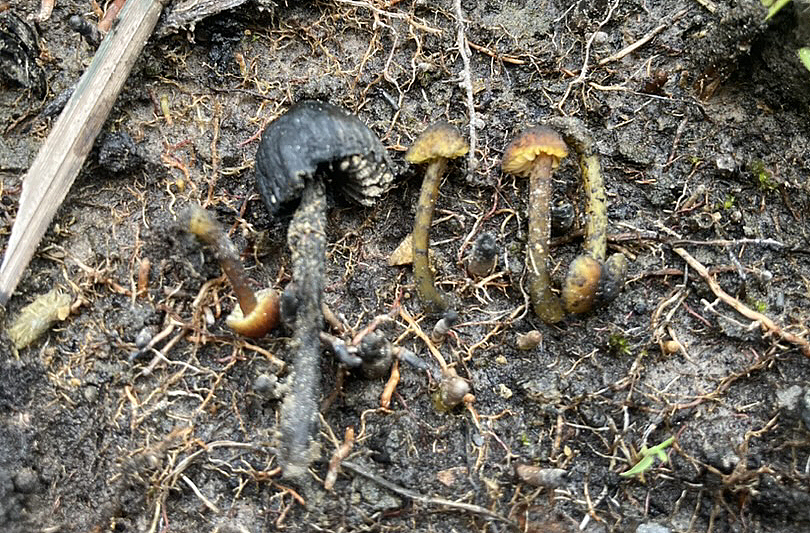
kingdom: Fungi
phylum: Basidiomycota
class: Agaricomycetes
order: Agaricales
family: Hygrophoraceae
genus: Hygrocybe
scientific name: Hygrocybe
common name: vokshat
